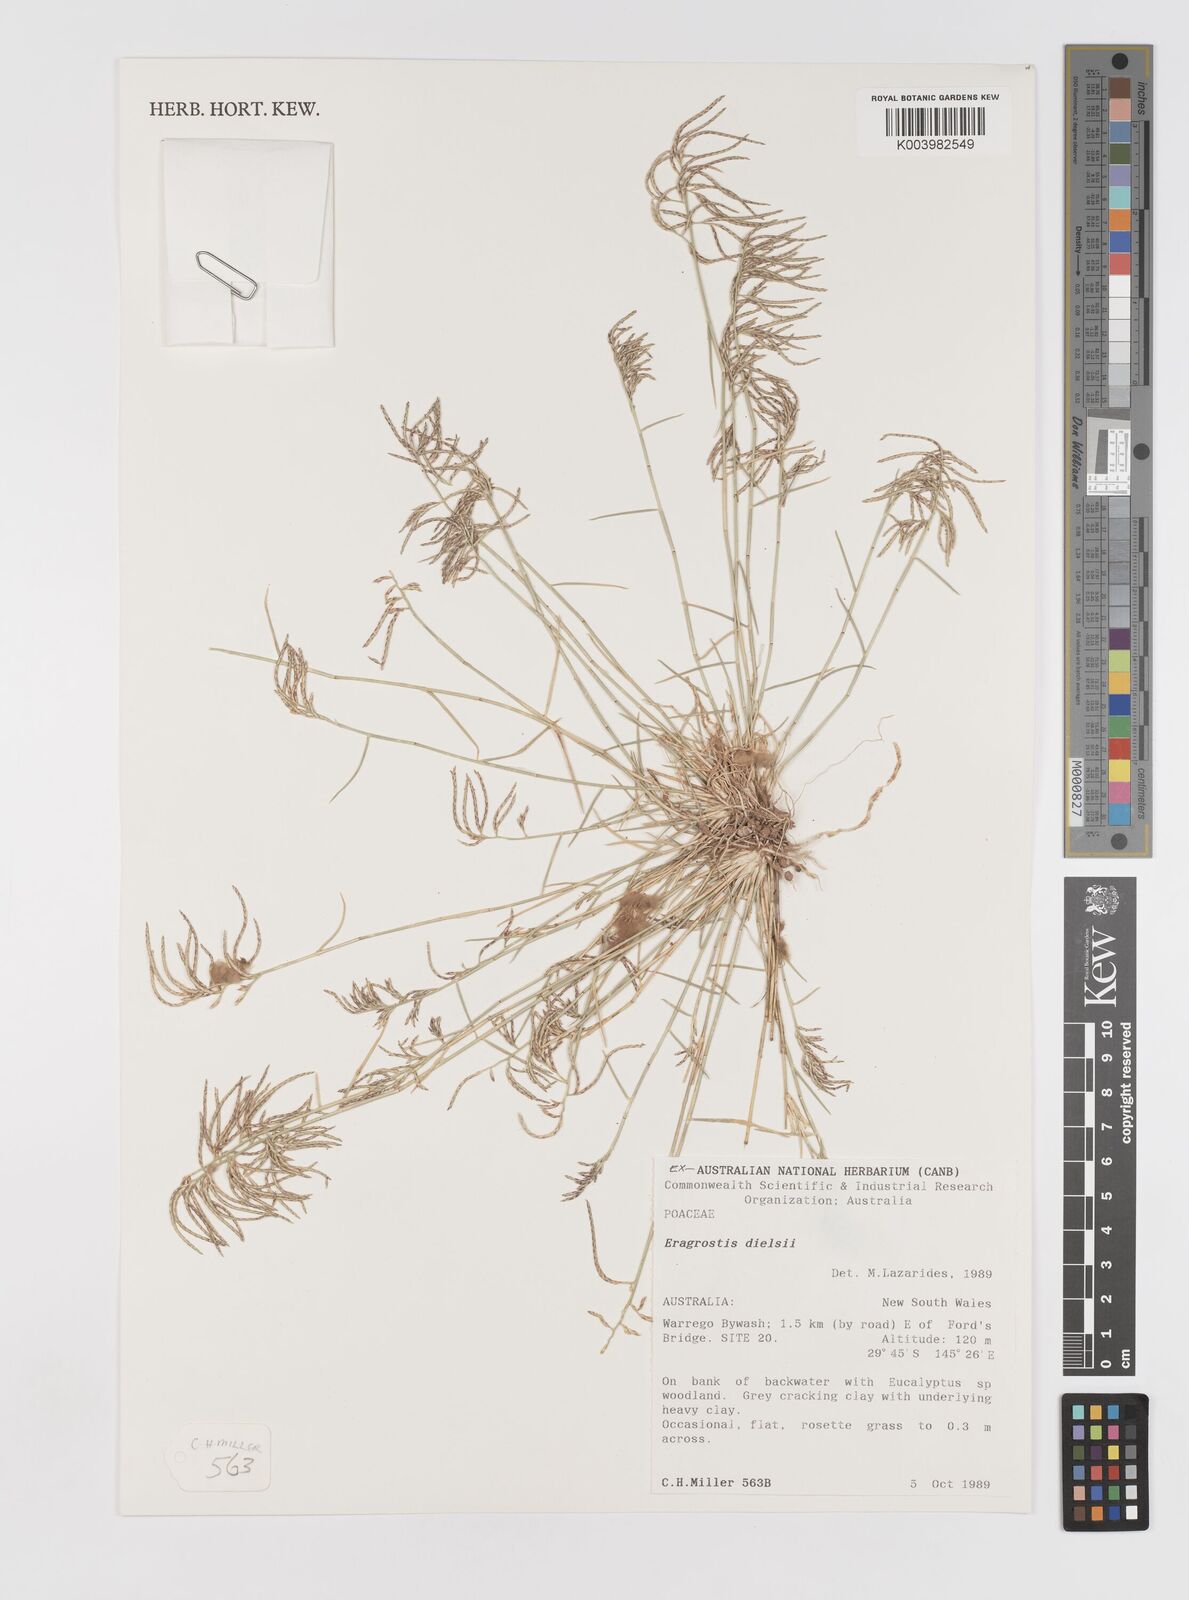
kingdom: Plantae
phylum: Tracheophyta
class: Liliopsida
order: Poales
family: Poaceae
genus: Eragrostis
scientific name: Eragrostis dielsii
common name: Lovegrass
